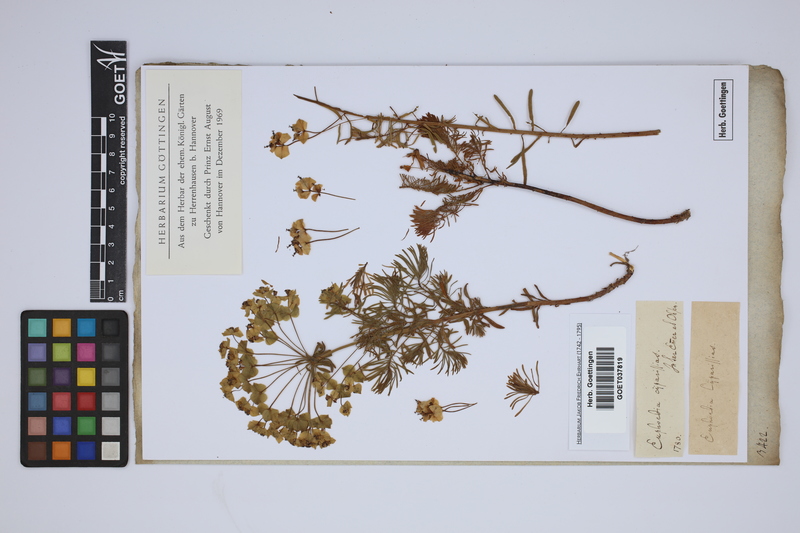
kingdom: Plantae
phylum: Tracheophyta
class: Magnoliopsida
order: Malpighiales
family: Euphorbiaceae
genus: Euphorbia
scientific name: Euphorbia cyparissias
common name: Cypress spurge
